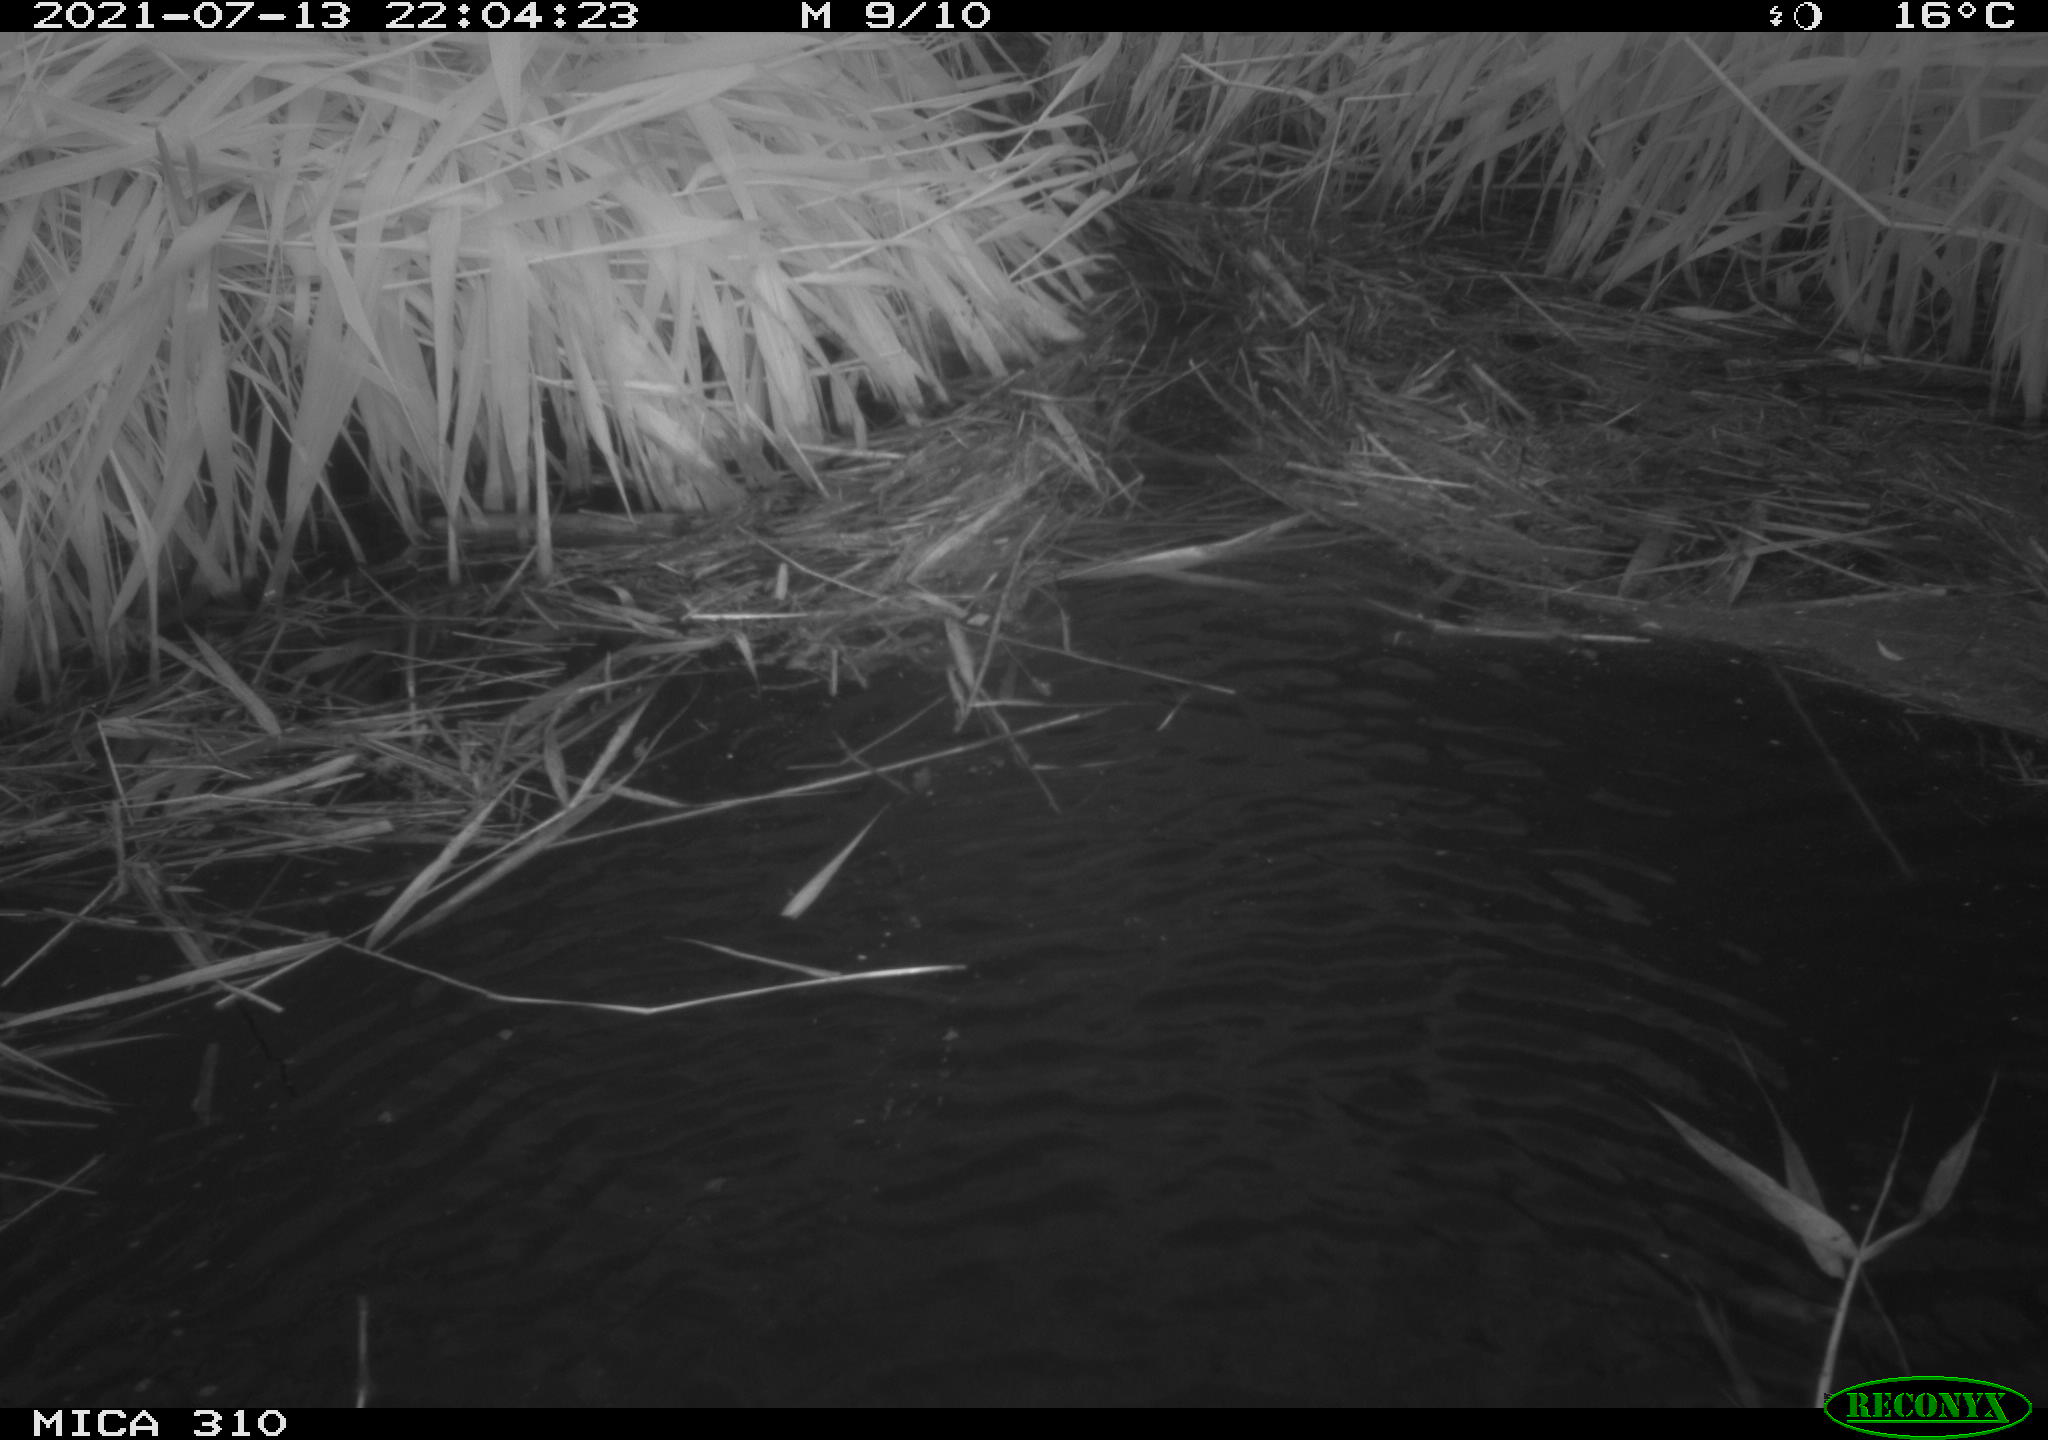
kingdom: Animalia
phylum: Chordata
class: Aves
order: Anseriformes
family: Anatidae
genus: Anas
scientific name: Anas platyrhynchos
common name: Mallard
